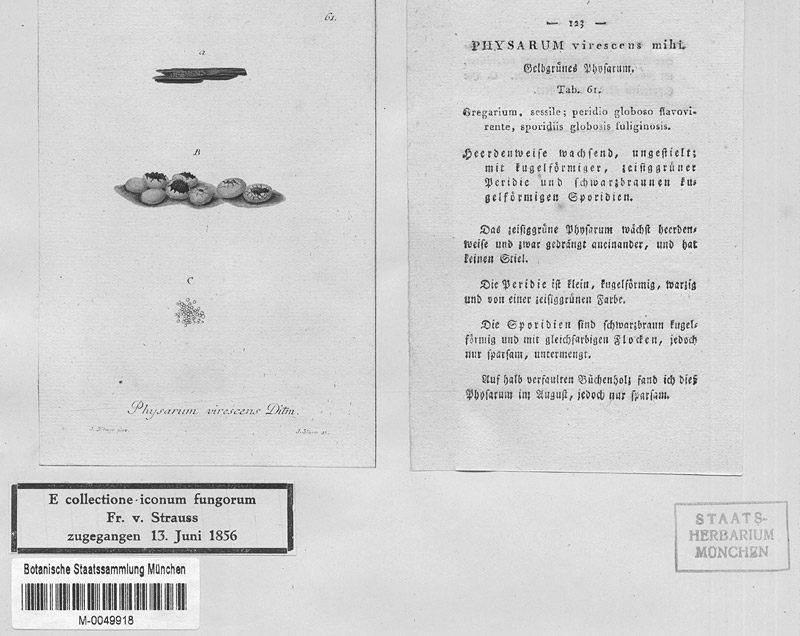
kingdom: Protozoa
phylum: Mycetozoa
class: Myxomycetes
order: Physarales
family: Physaraceae
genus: Physarum
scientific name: Physarum virescens
